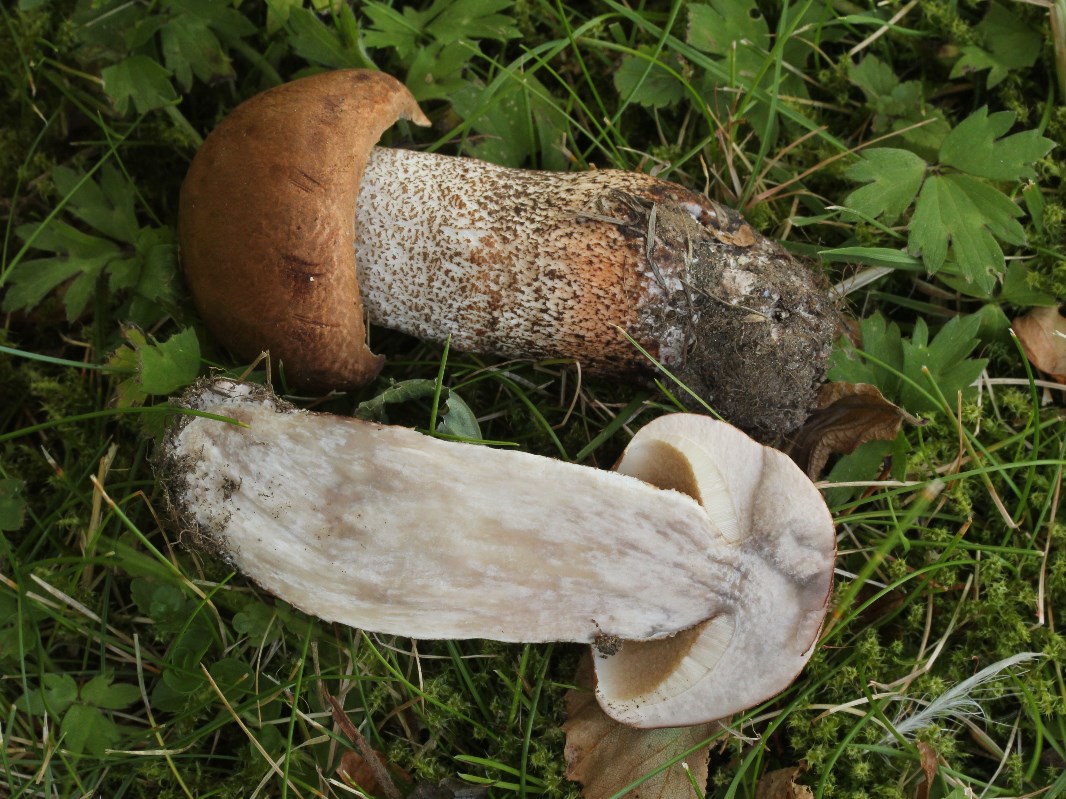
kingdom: Fungi
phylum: Basidiomycota
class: Agaricomycetes
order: Boletales
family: Boletaceae
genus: Leccinum
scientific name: Leccinum aurantiacum
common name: rustrød skælrørhat
